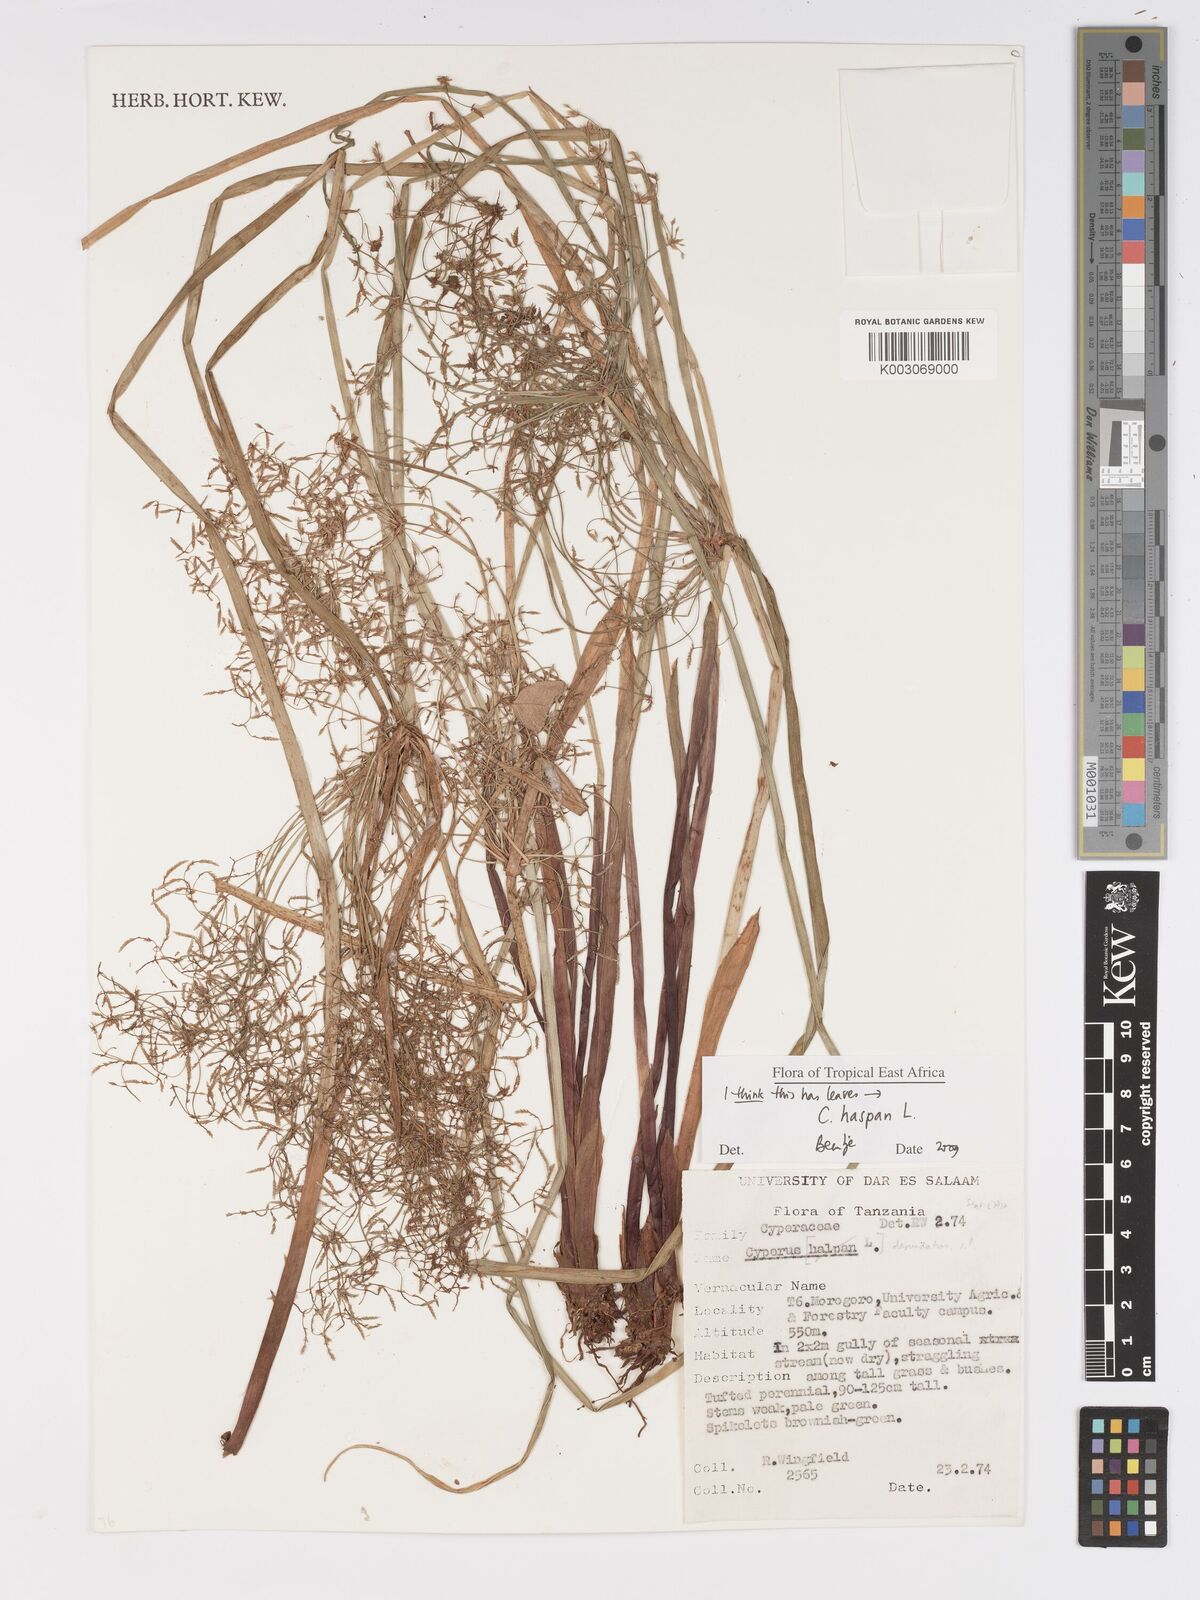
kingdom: Plantae
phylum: Tracheophyta
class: Liliopsida
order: Poales
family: Cyperaceae
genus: Cyperus
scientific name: Cyperus platycaulis
